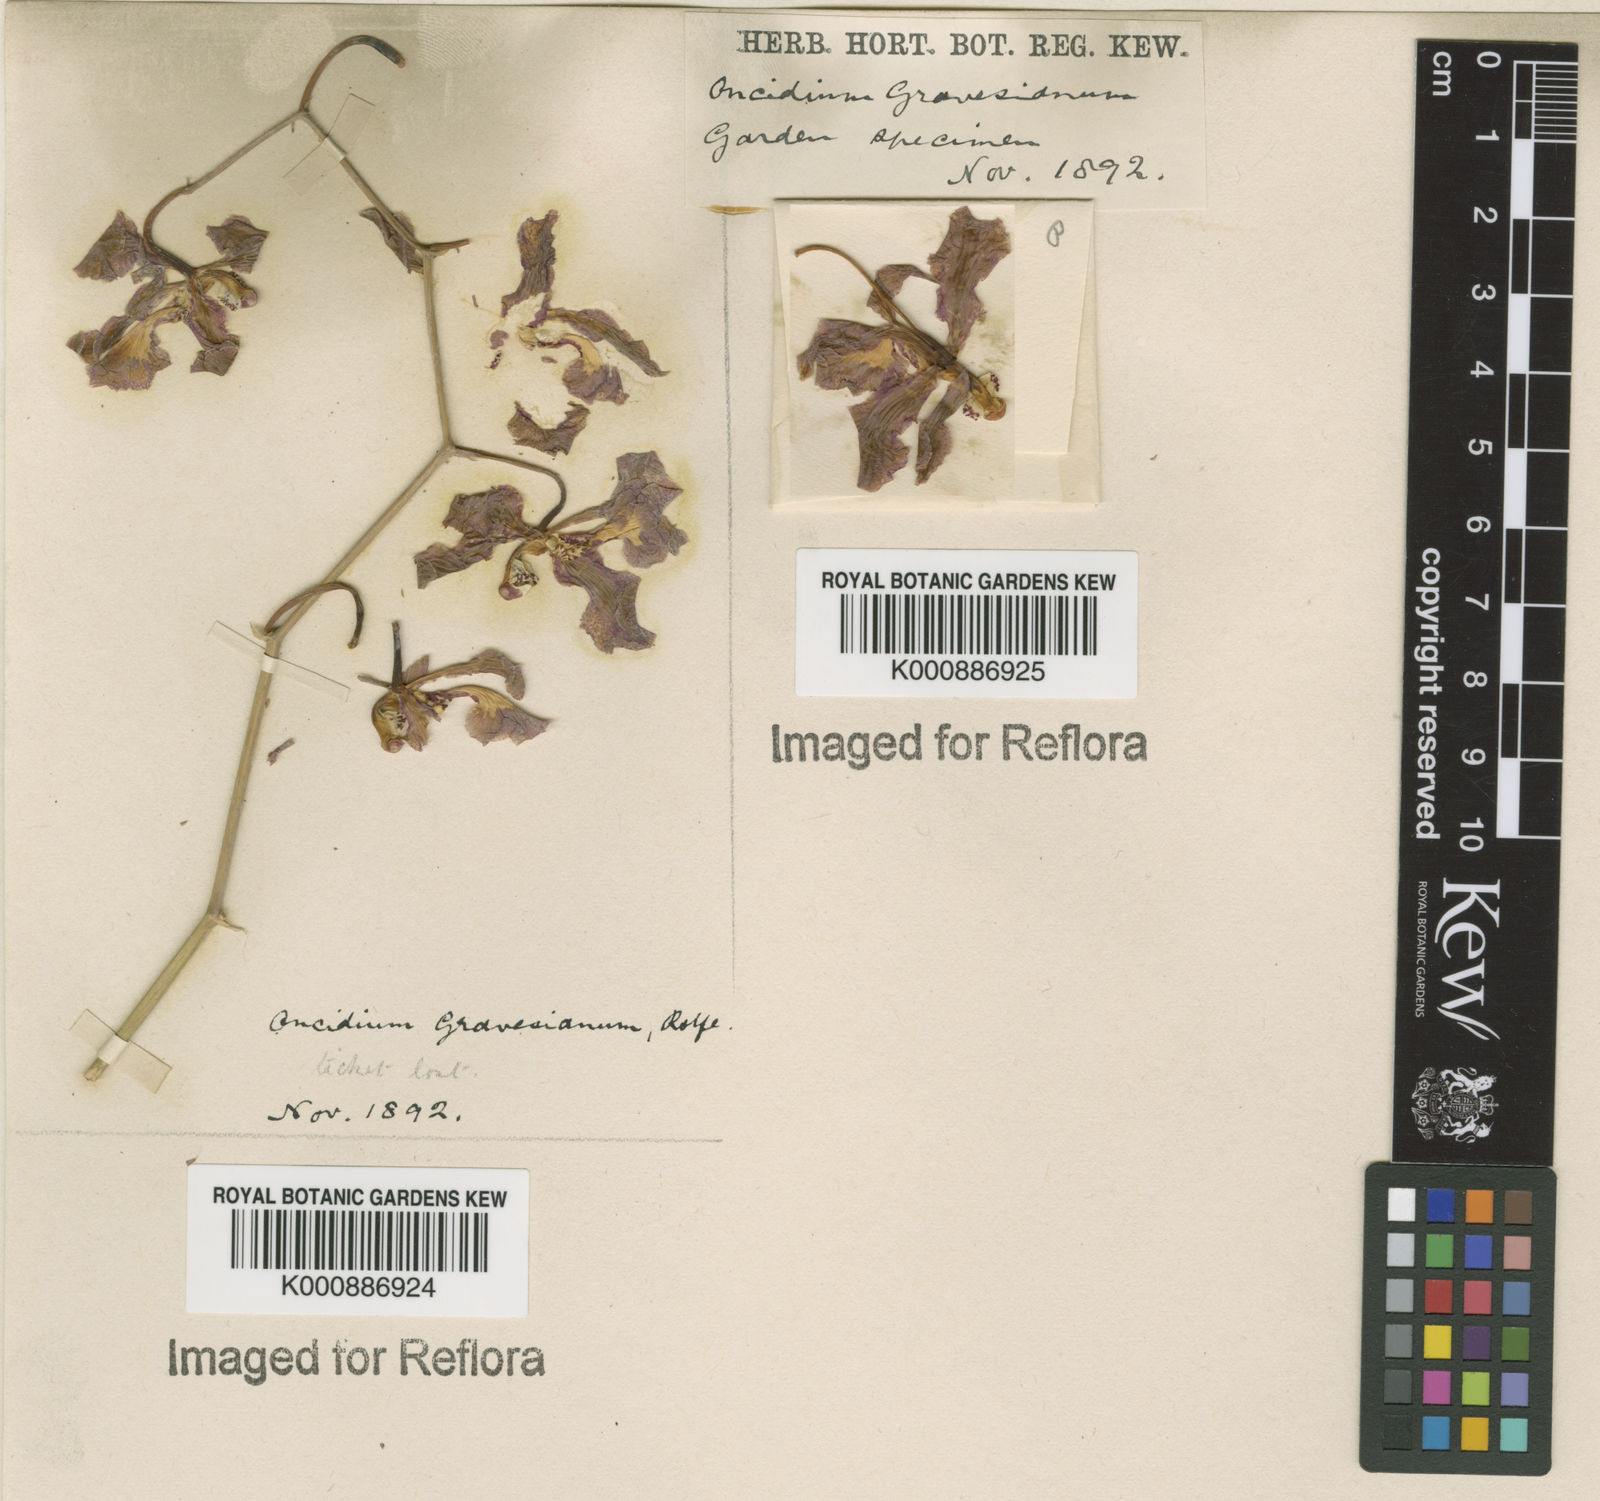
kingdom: Plantae
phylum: Tracheophyta
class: Liliopsida
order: Asparagales
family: Orchidaceae
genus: Gomesa
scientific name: Gomesa praetexta
